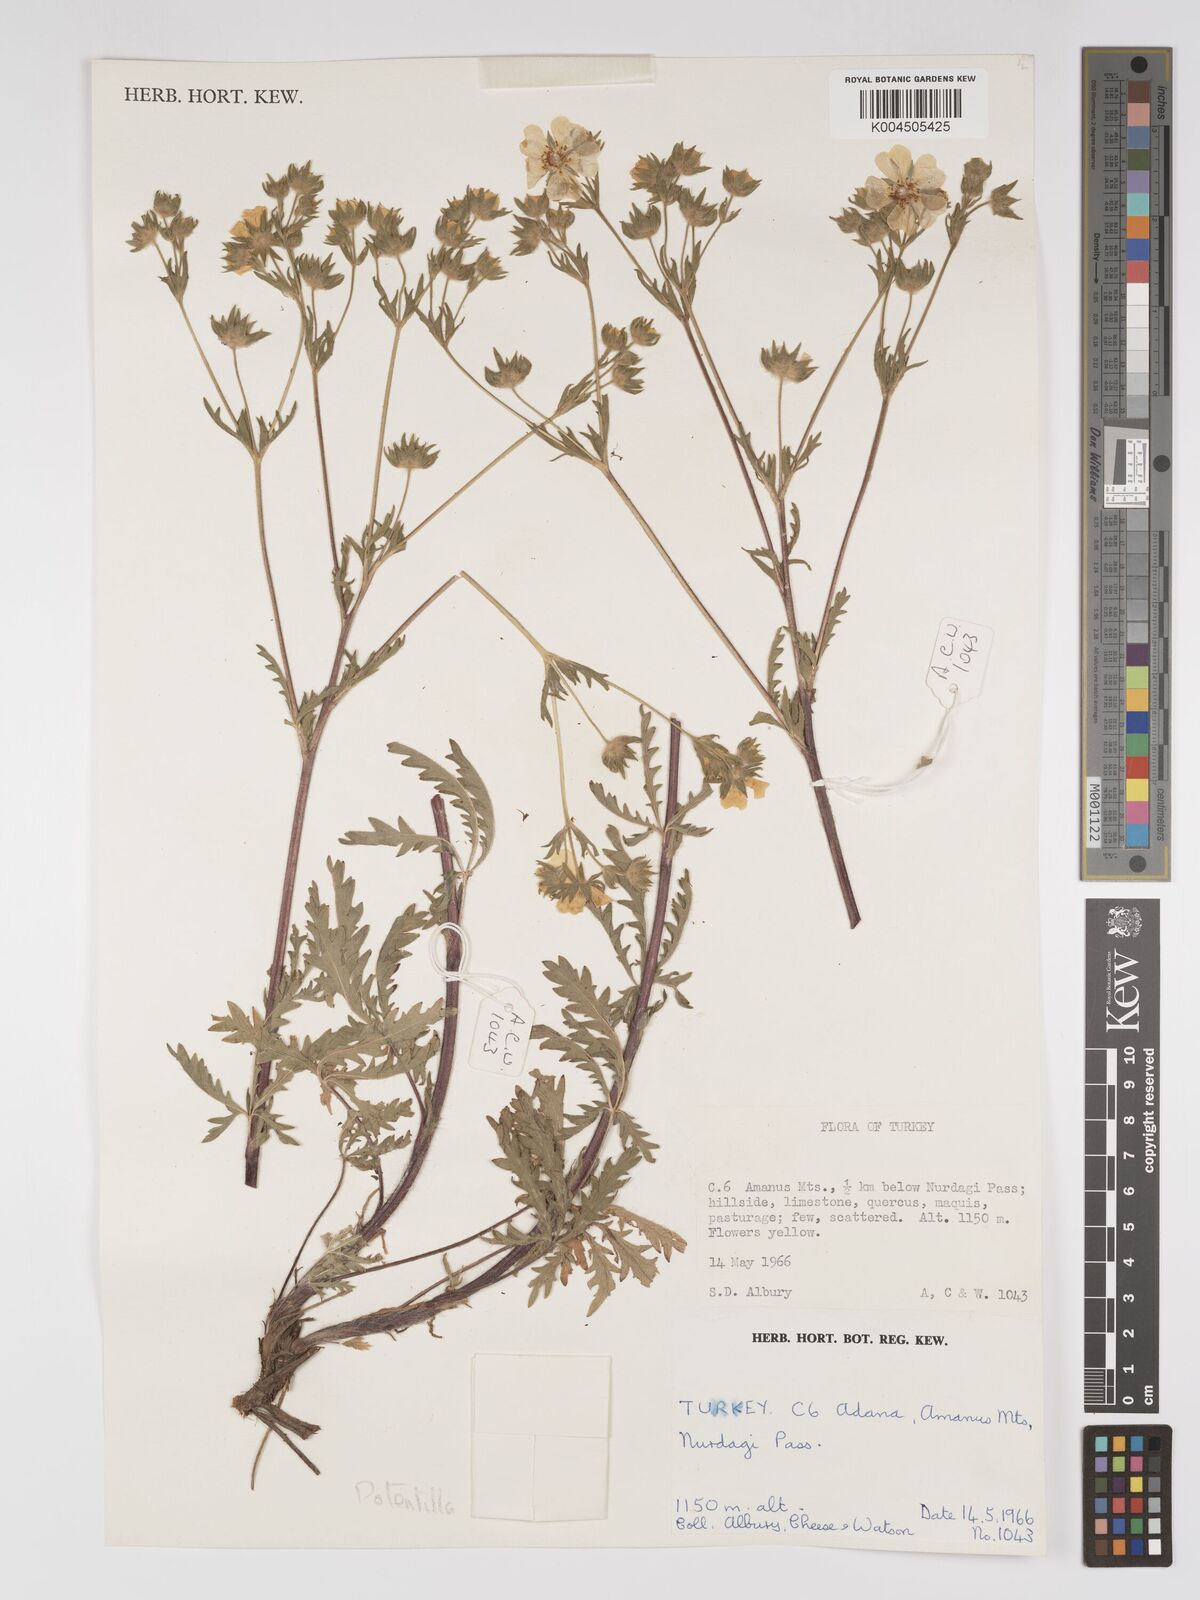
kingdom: Plantae
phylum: Tracheophyta
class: Magnoliopsida
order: Rosales
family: Rosaceae
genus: Potentilla
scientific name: Potentilla
